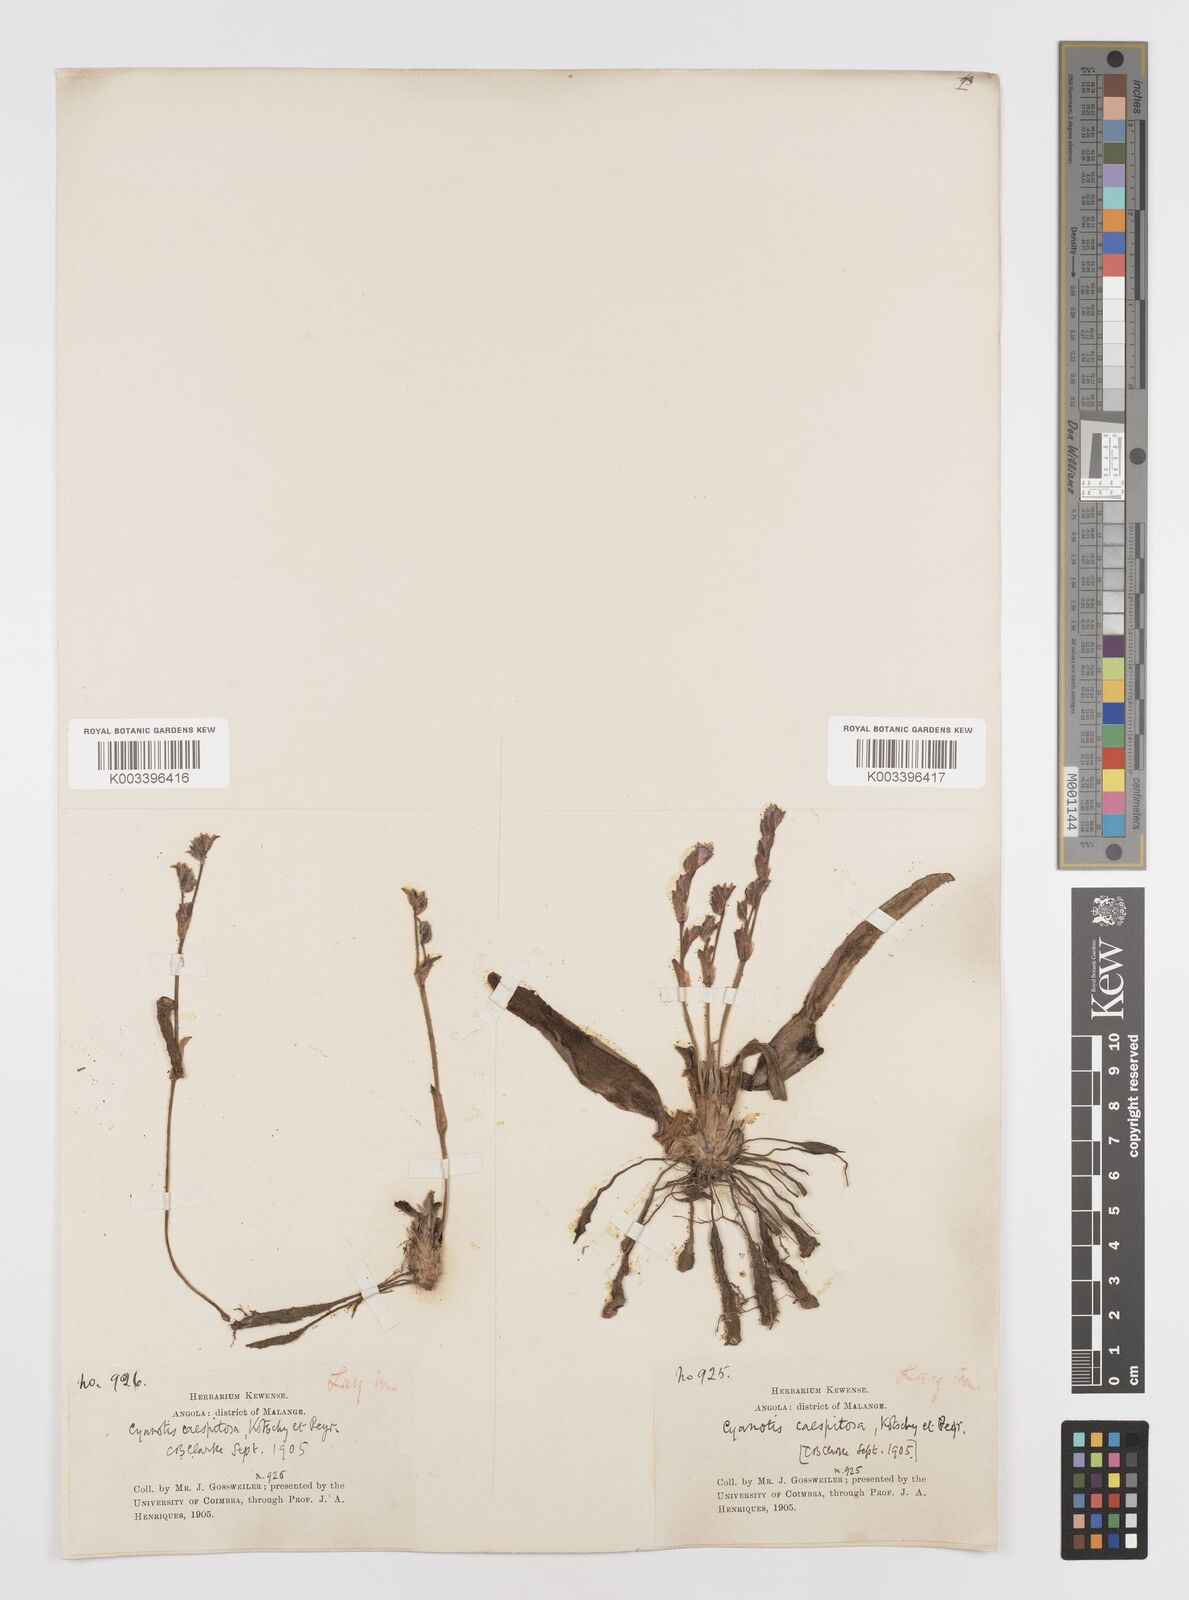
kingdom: Plantae
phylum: Tracheophyta
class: Liliopsida
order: Commelinales
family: Commelinaceae
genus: Cyanotis
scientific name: Cyanotis caespitosa
